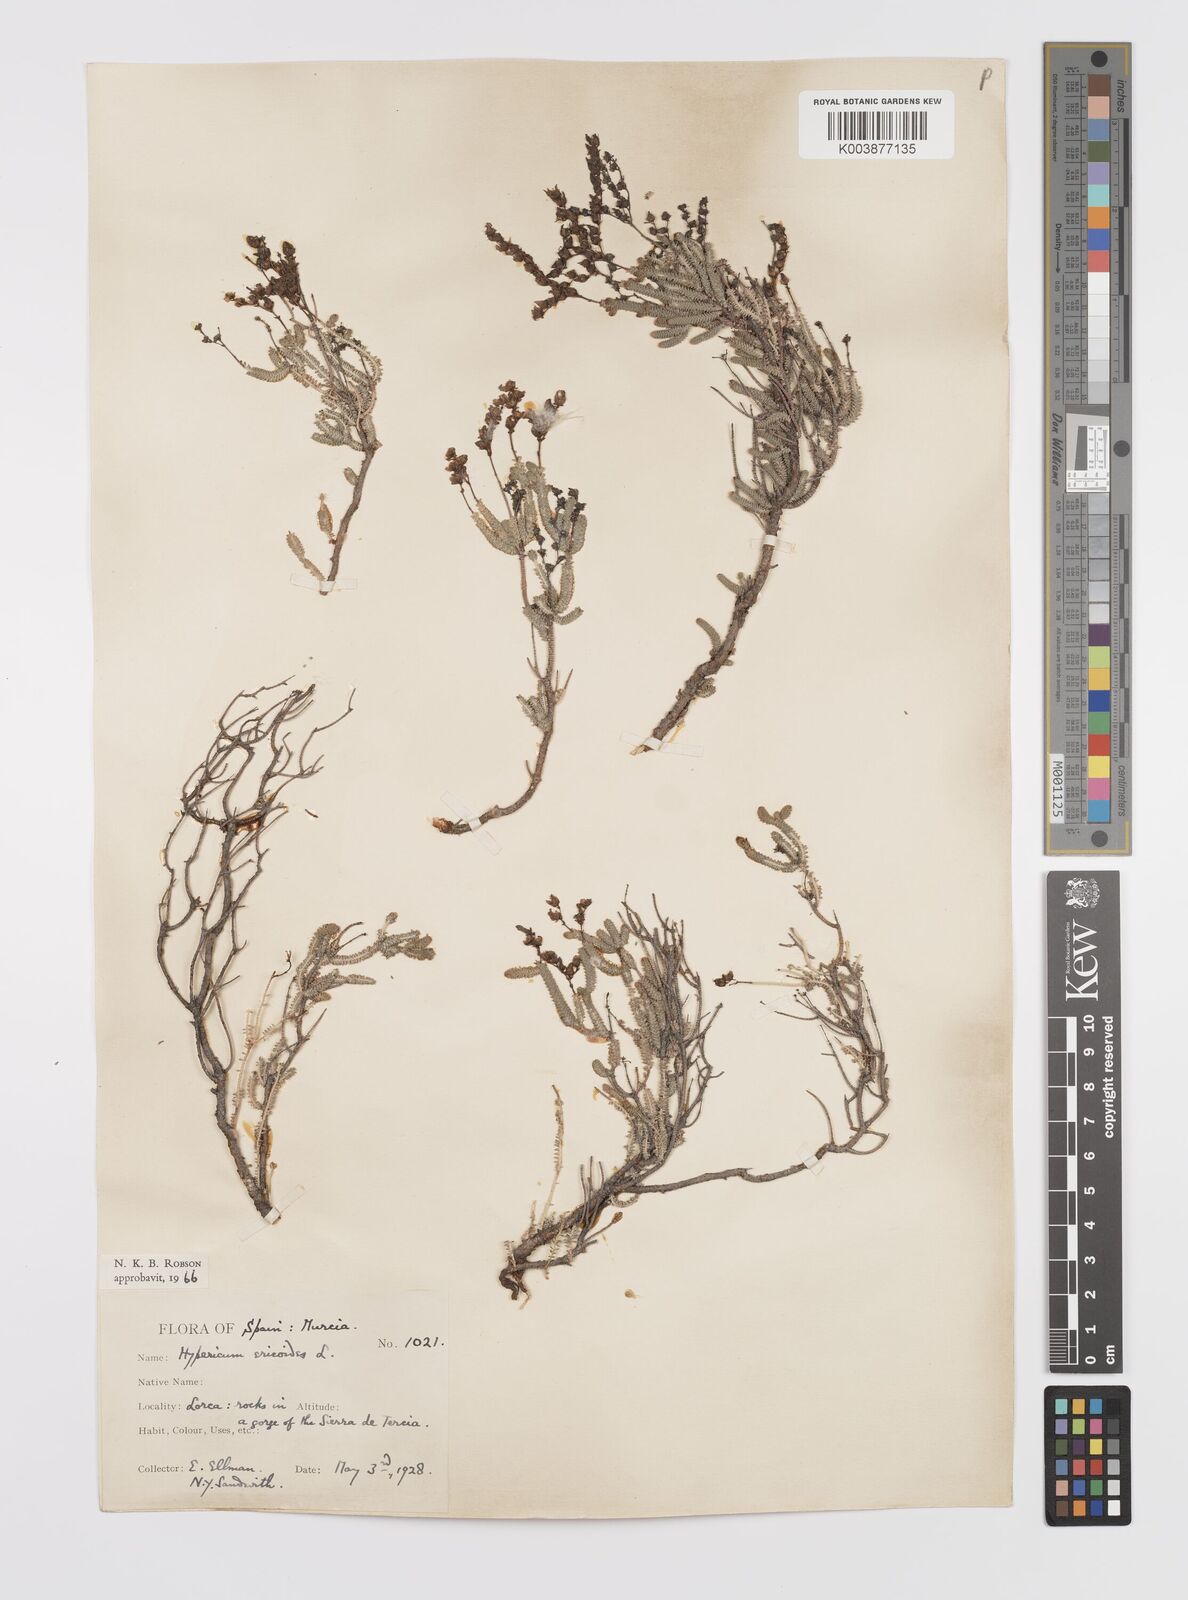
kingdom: Plantae
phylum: Tracheophyta
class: Magnoliopsida
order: Malpighiales
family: Hypericaceae
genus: Hypericum
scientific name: Hypericum ericoides
